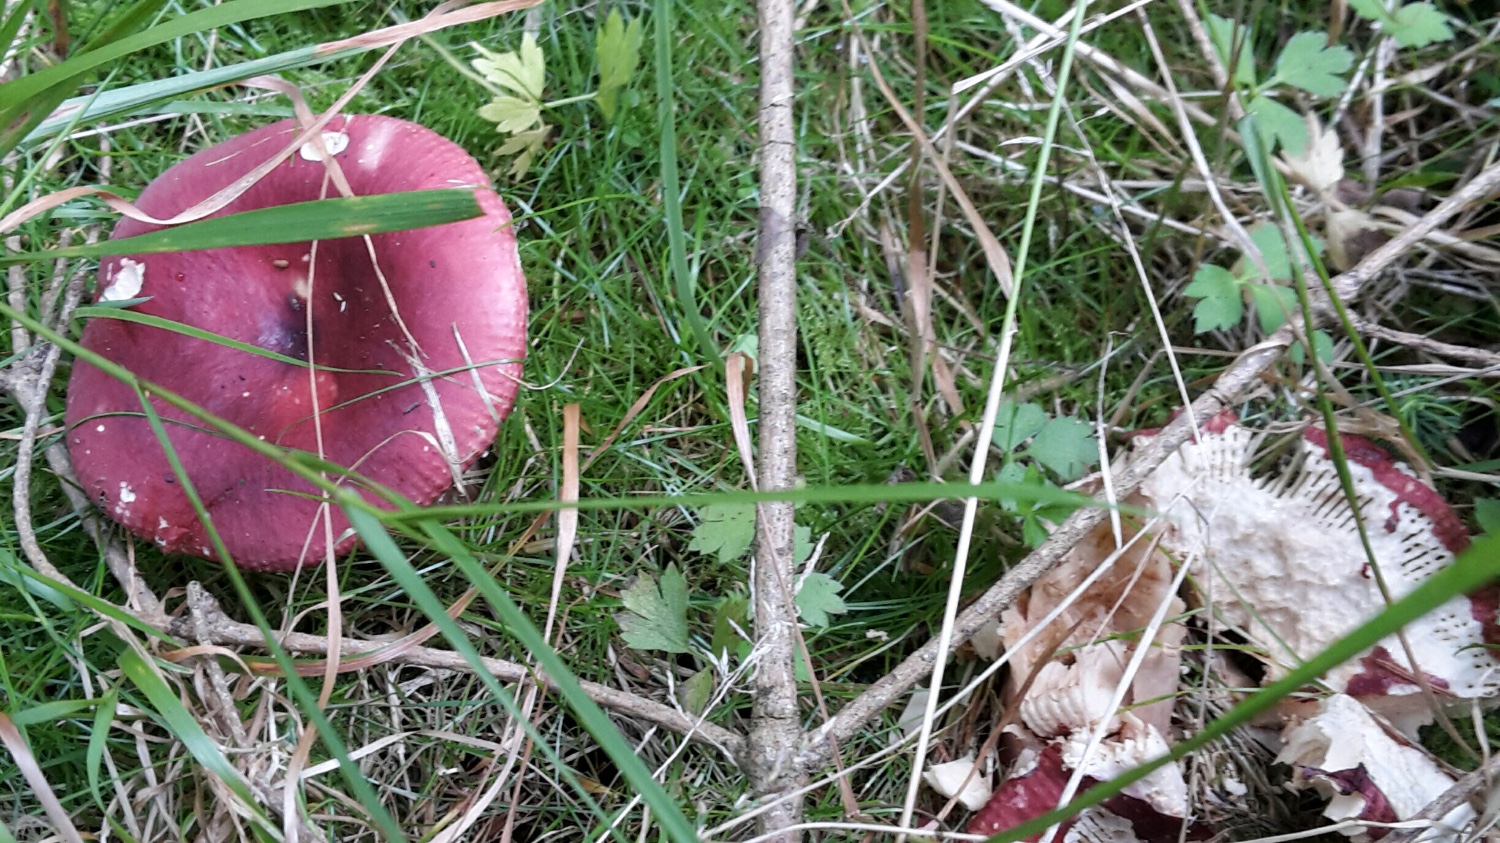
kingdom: Fungi
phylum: Basidiomycota
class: Agaricomycetes
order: Russulales
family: Russulaceae
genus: Russula
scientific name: Russula xerampelina
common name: hummer-skørhat
